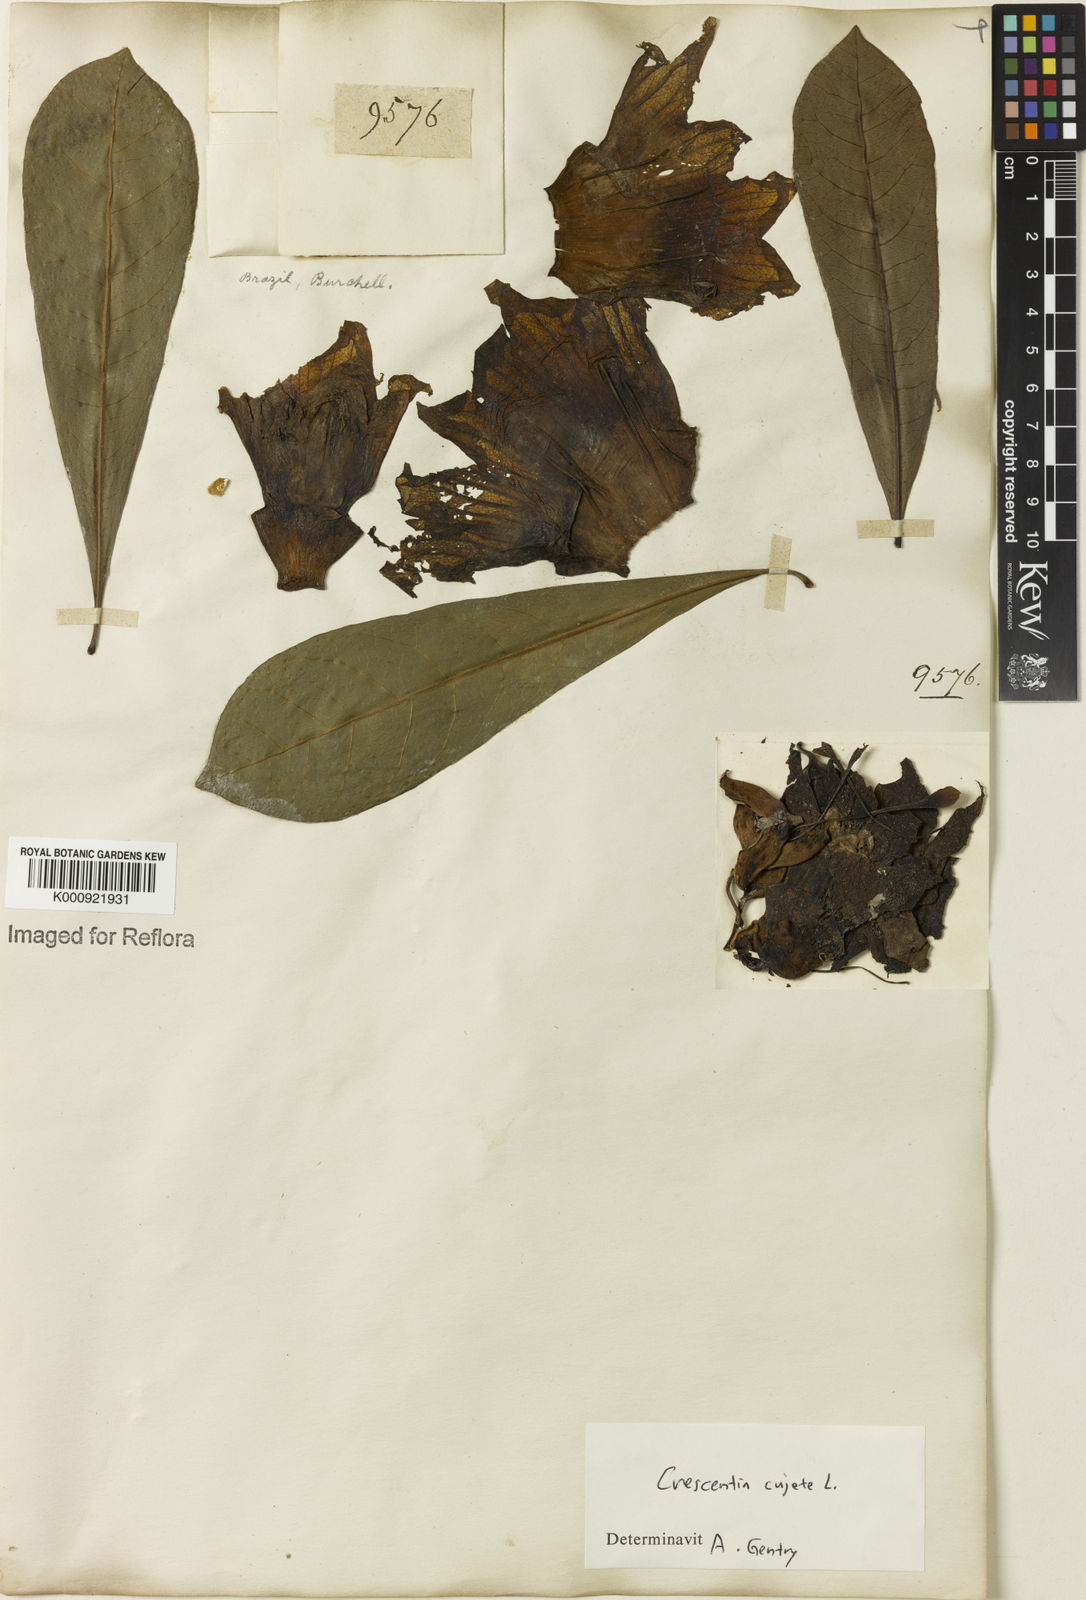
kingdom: Plantae
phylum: Tracheophyta
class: Magnoliopsida
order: Lamiales
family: Bignoniaceae
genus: Crescentia
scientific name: Crescentia cujete
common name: Calabash
